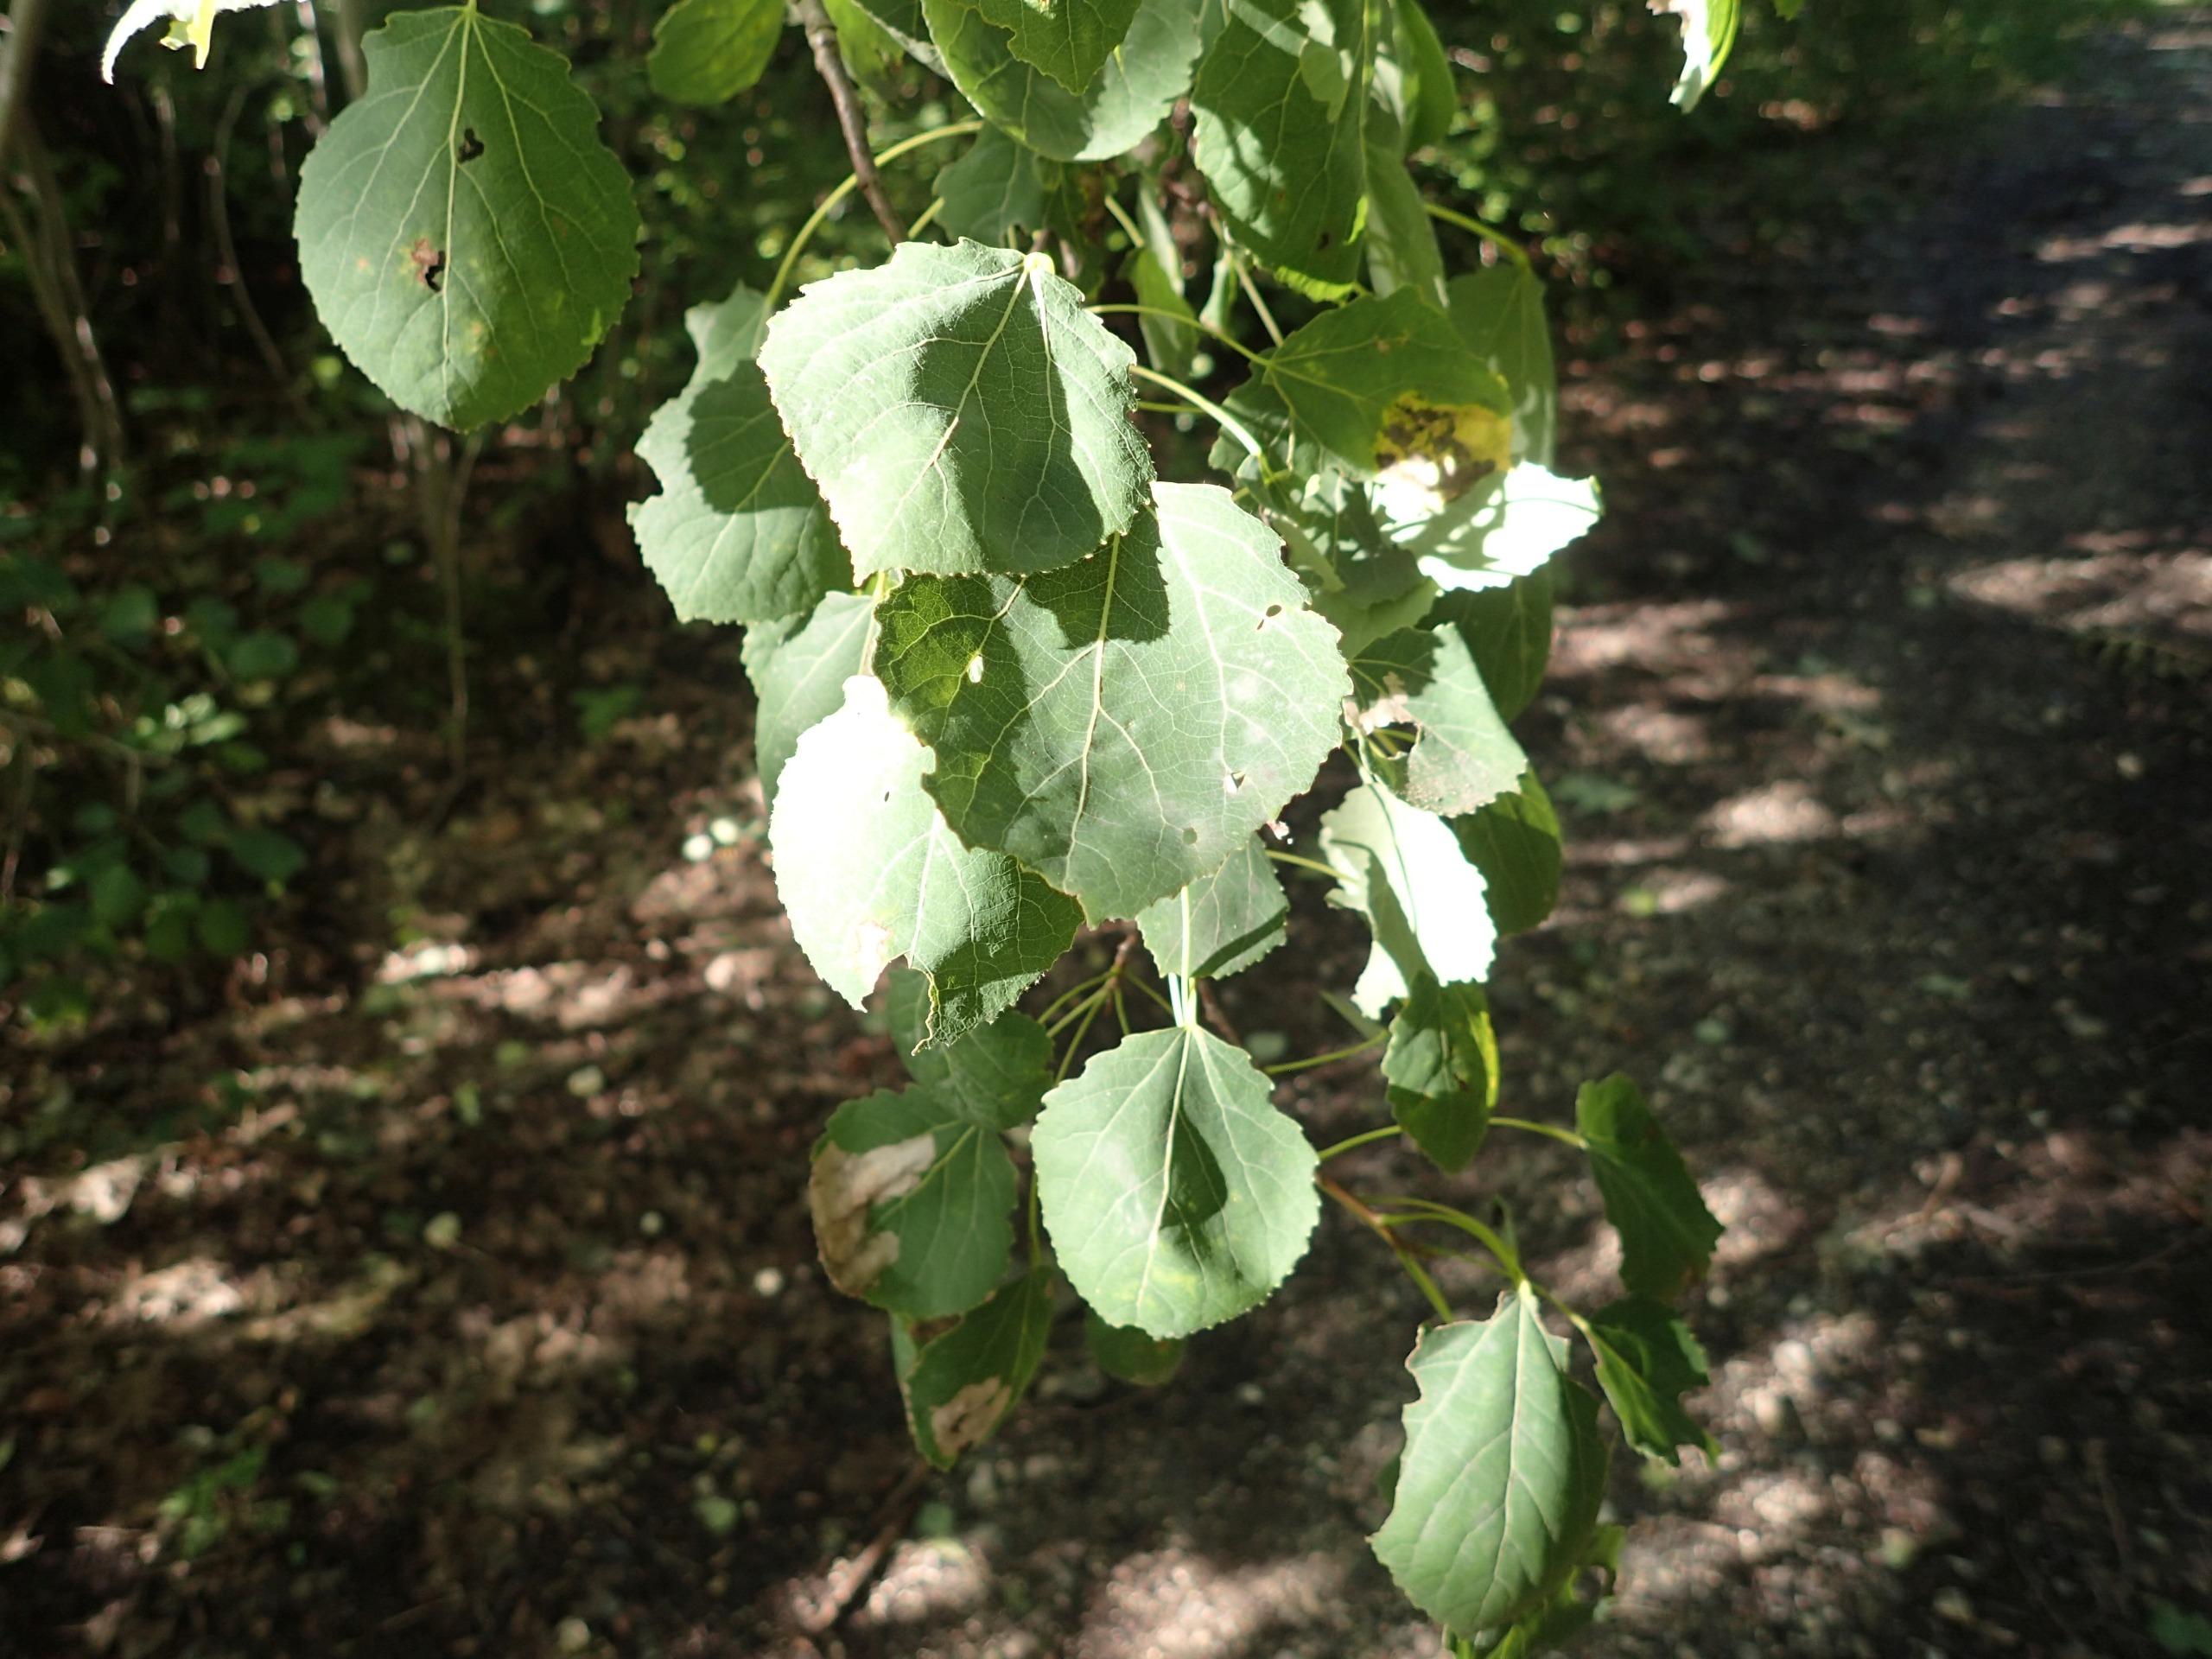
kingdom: Plantae
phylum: Tracheophyta
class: Magnoliopsida
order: Malpighiales
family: Salicaceae
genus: Populus
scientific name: Populus tremula
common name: Bævreasp
